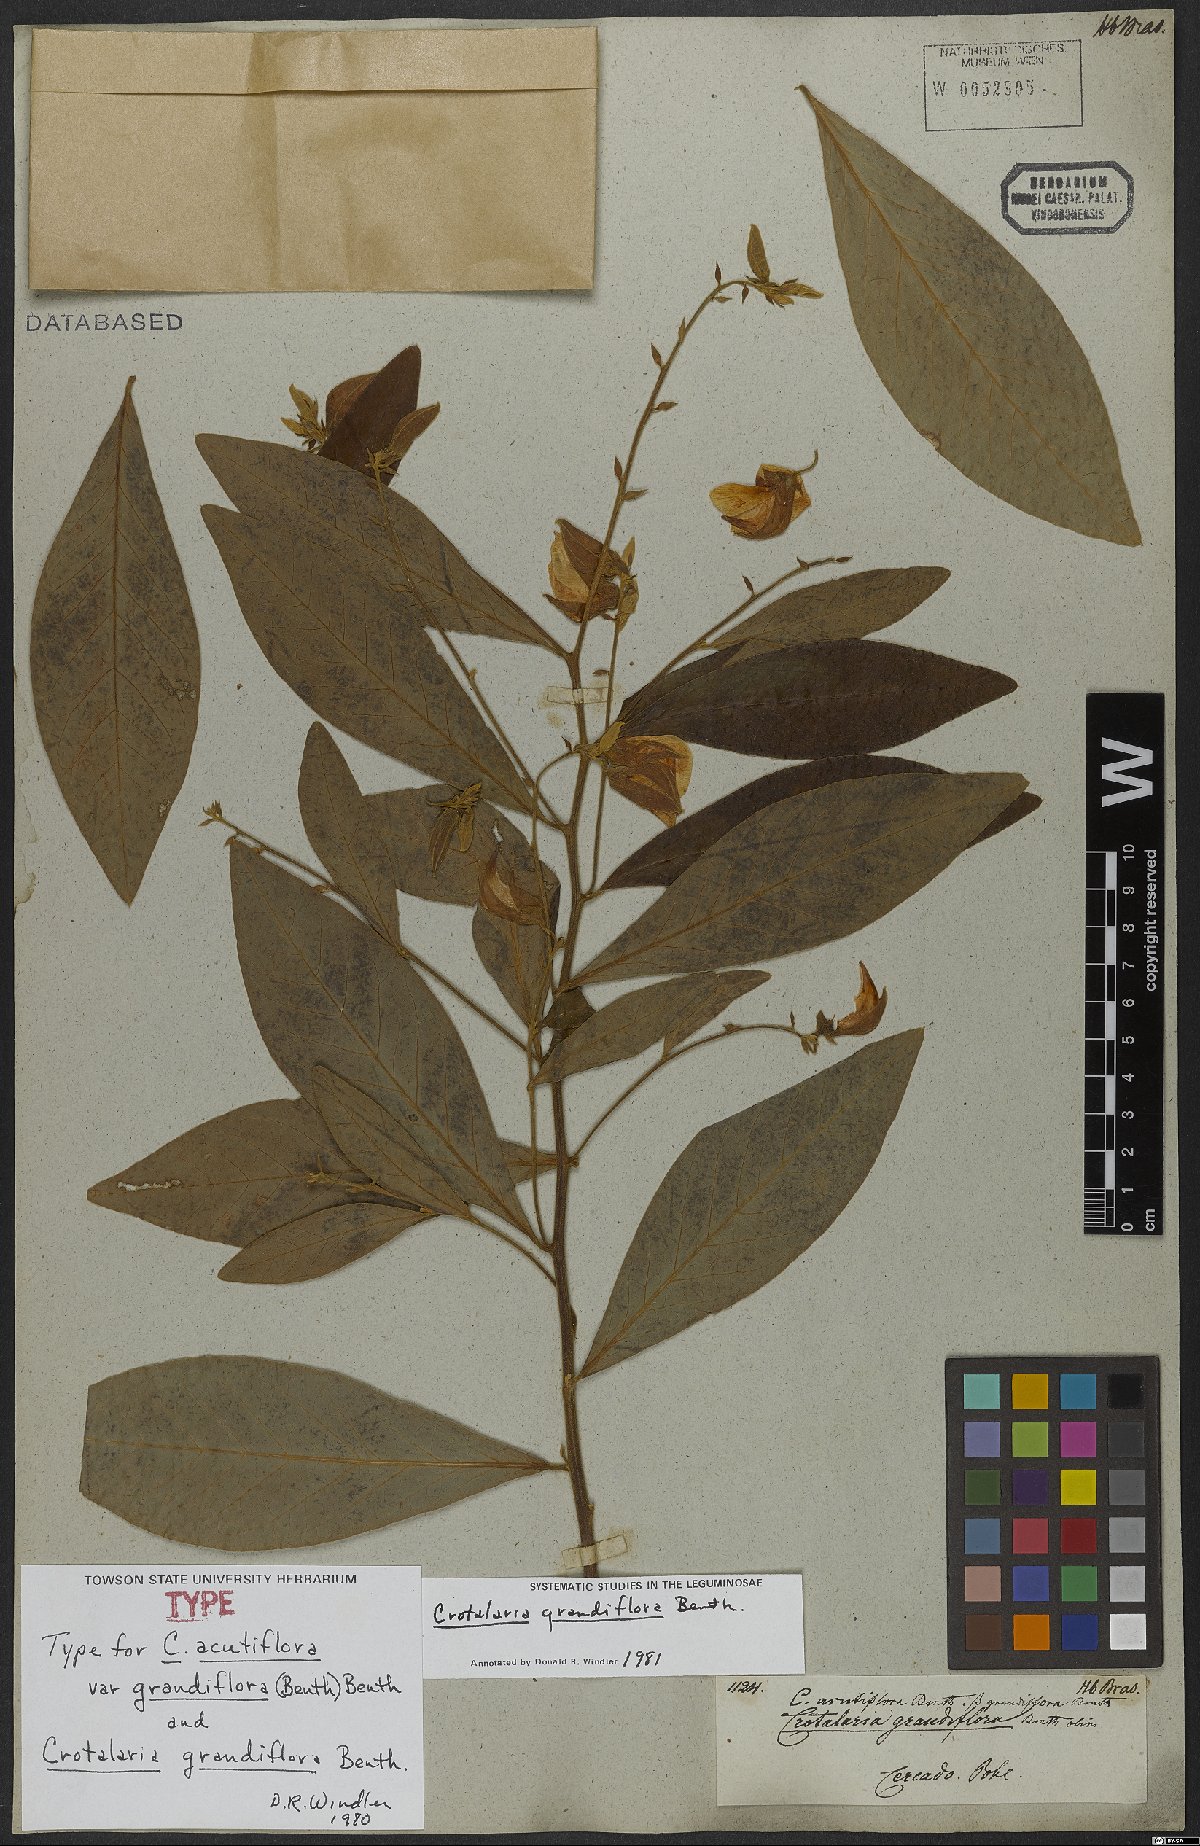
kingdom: Plantae
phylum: Tracheophyta
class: Magnoliopsida
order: Fabales
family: Fabaceae
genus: Crotalaria
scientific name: Crotalaria grandiflora
